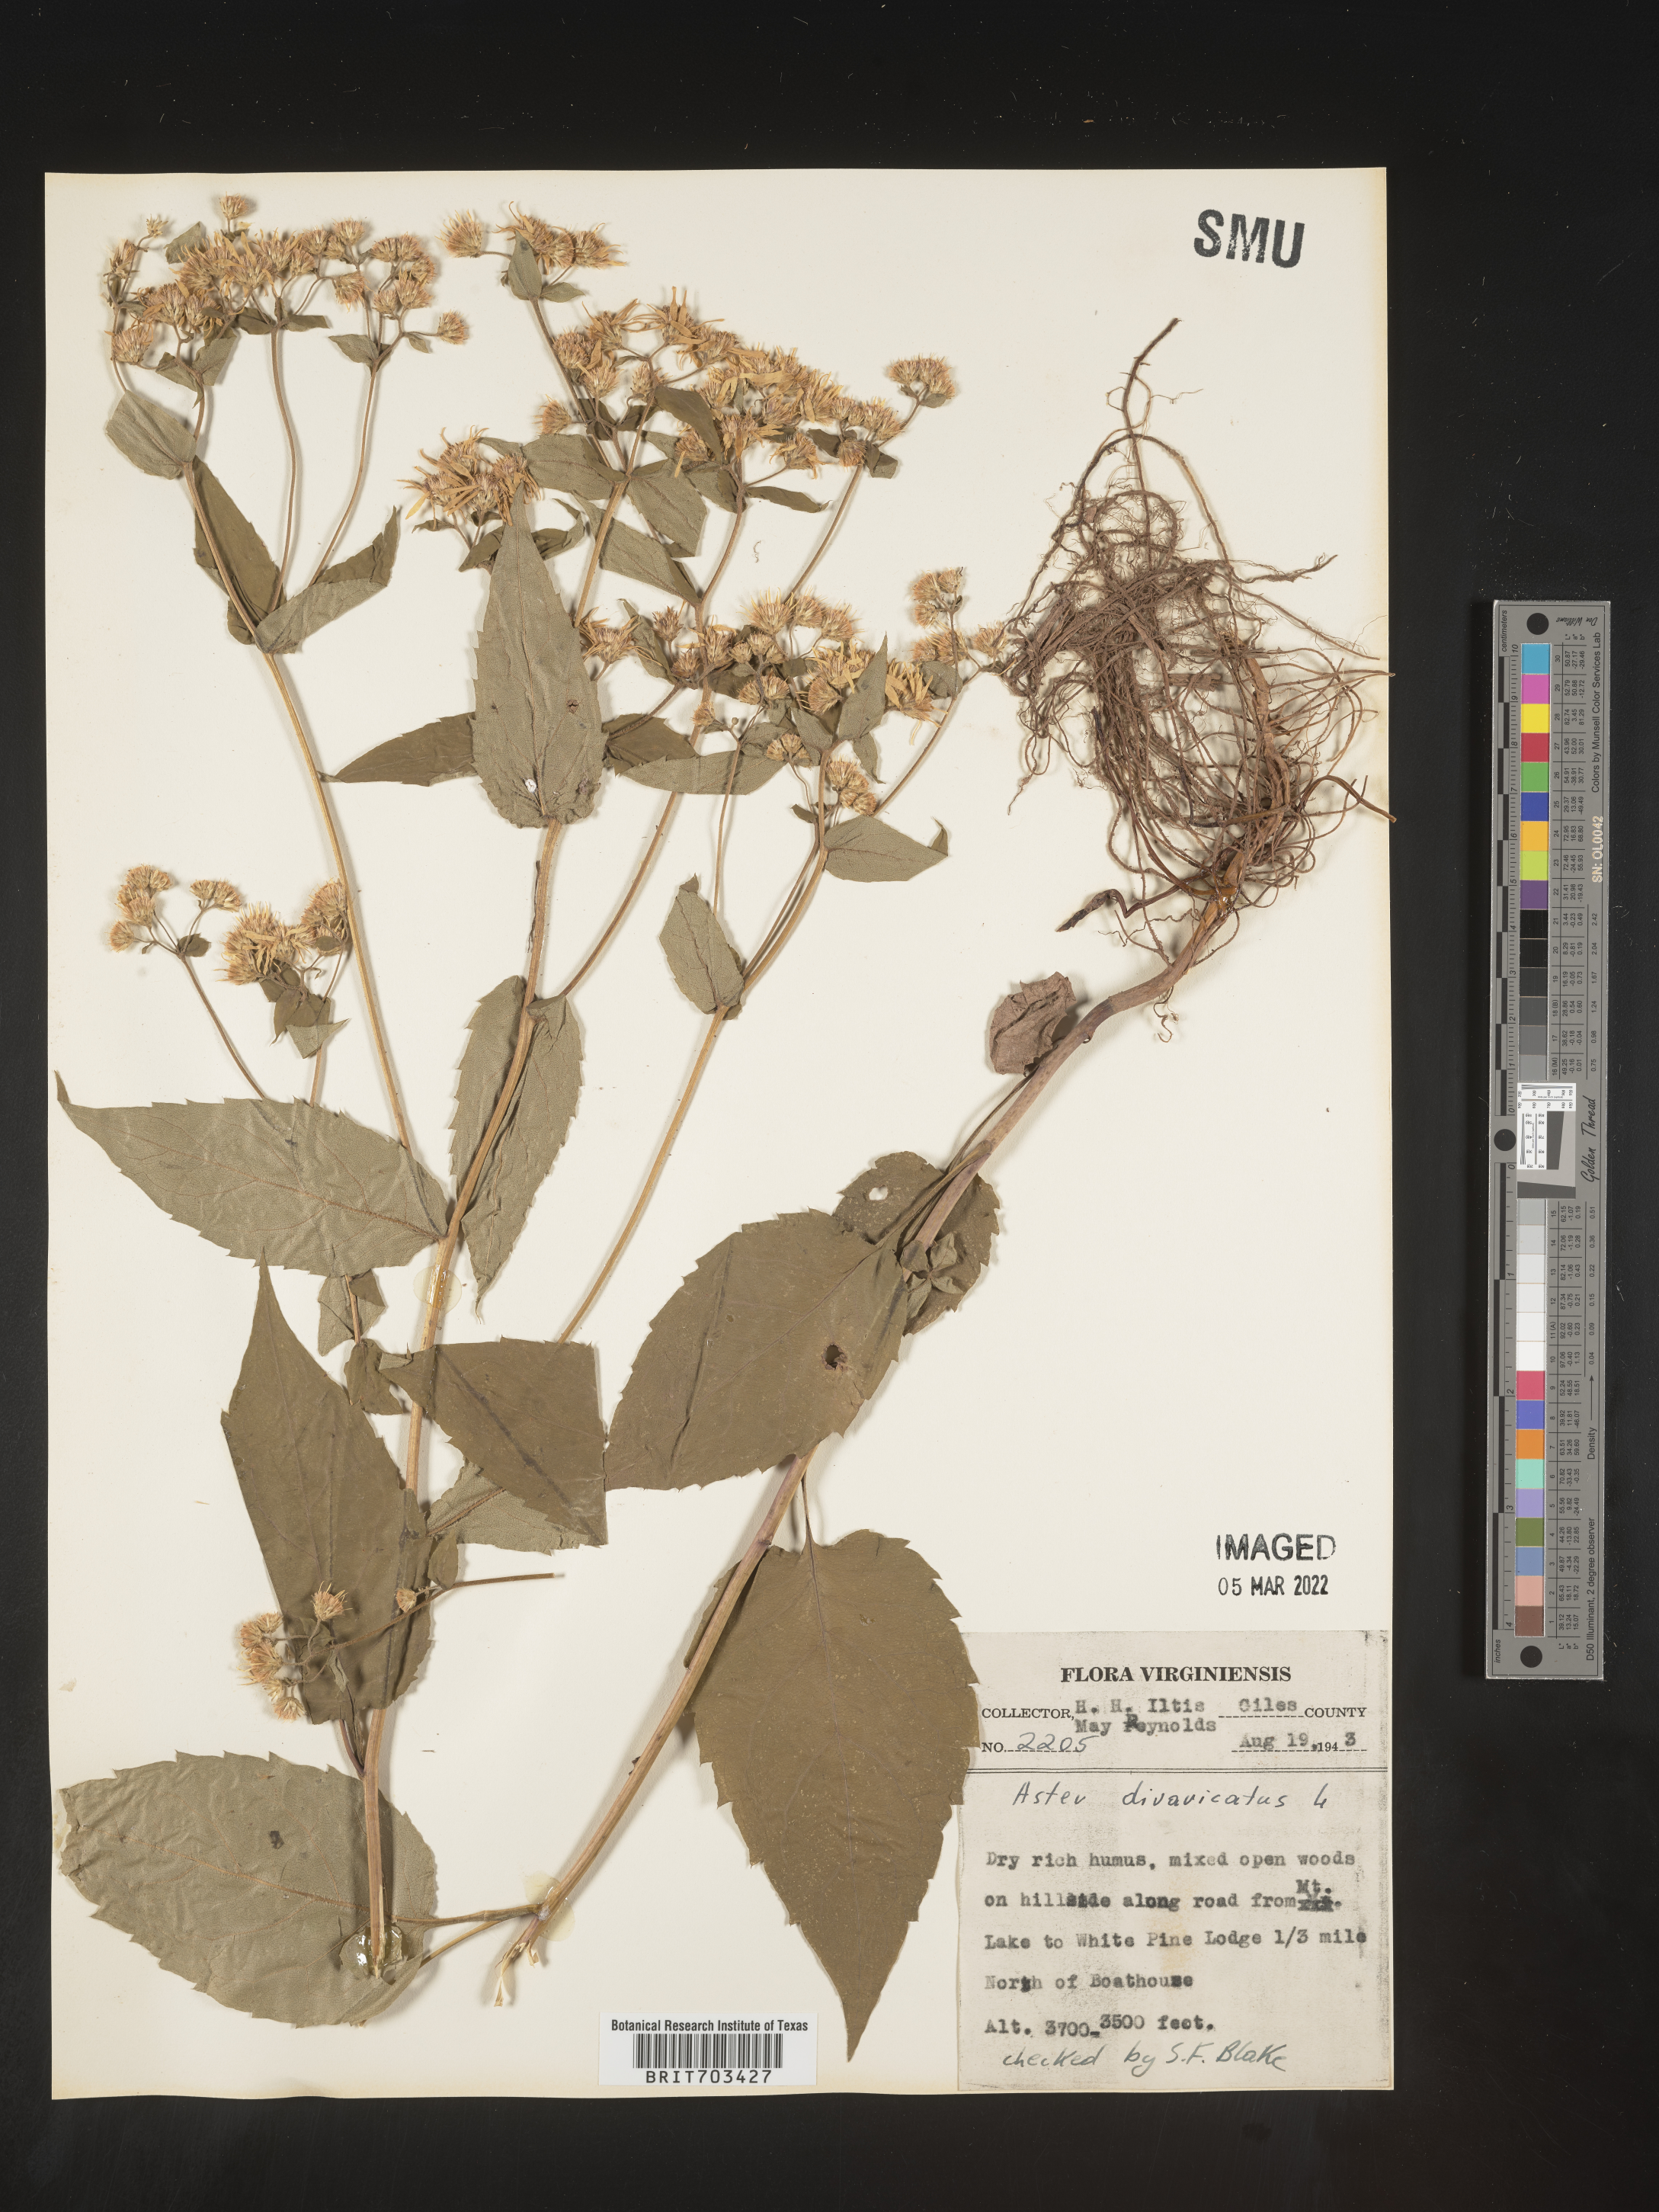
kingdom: Plantae
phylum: Tracheophyta
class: Magnoliopsida
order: Asterales
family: Asteraceae
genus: Eurybia
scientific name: Eurybia divaricata
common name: White wood aster
